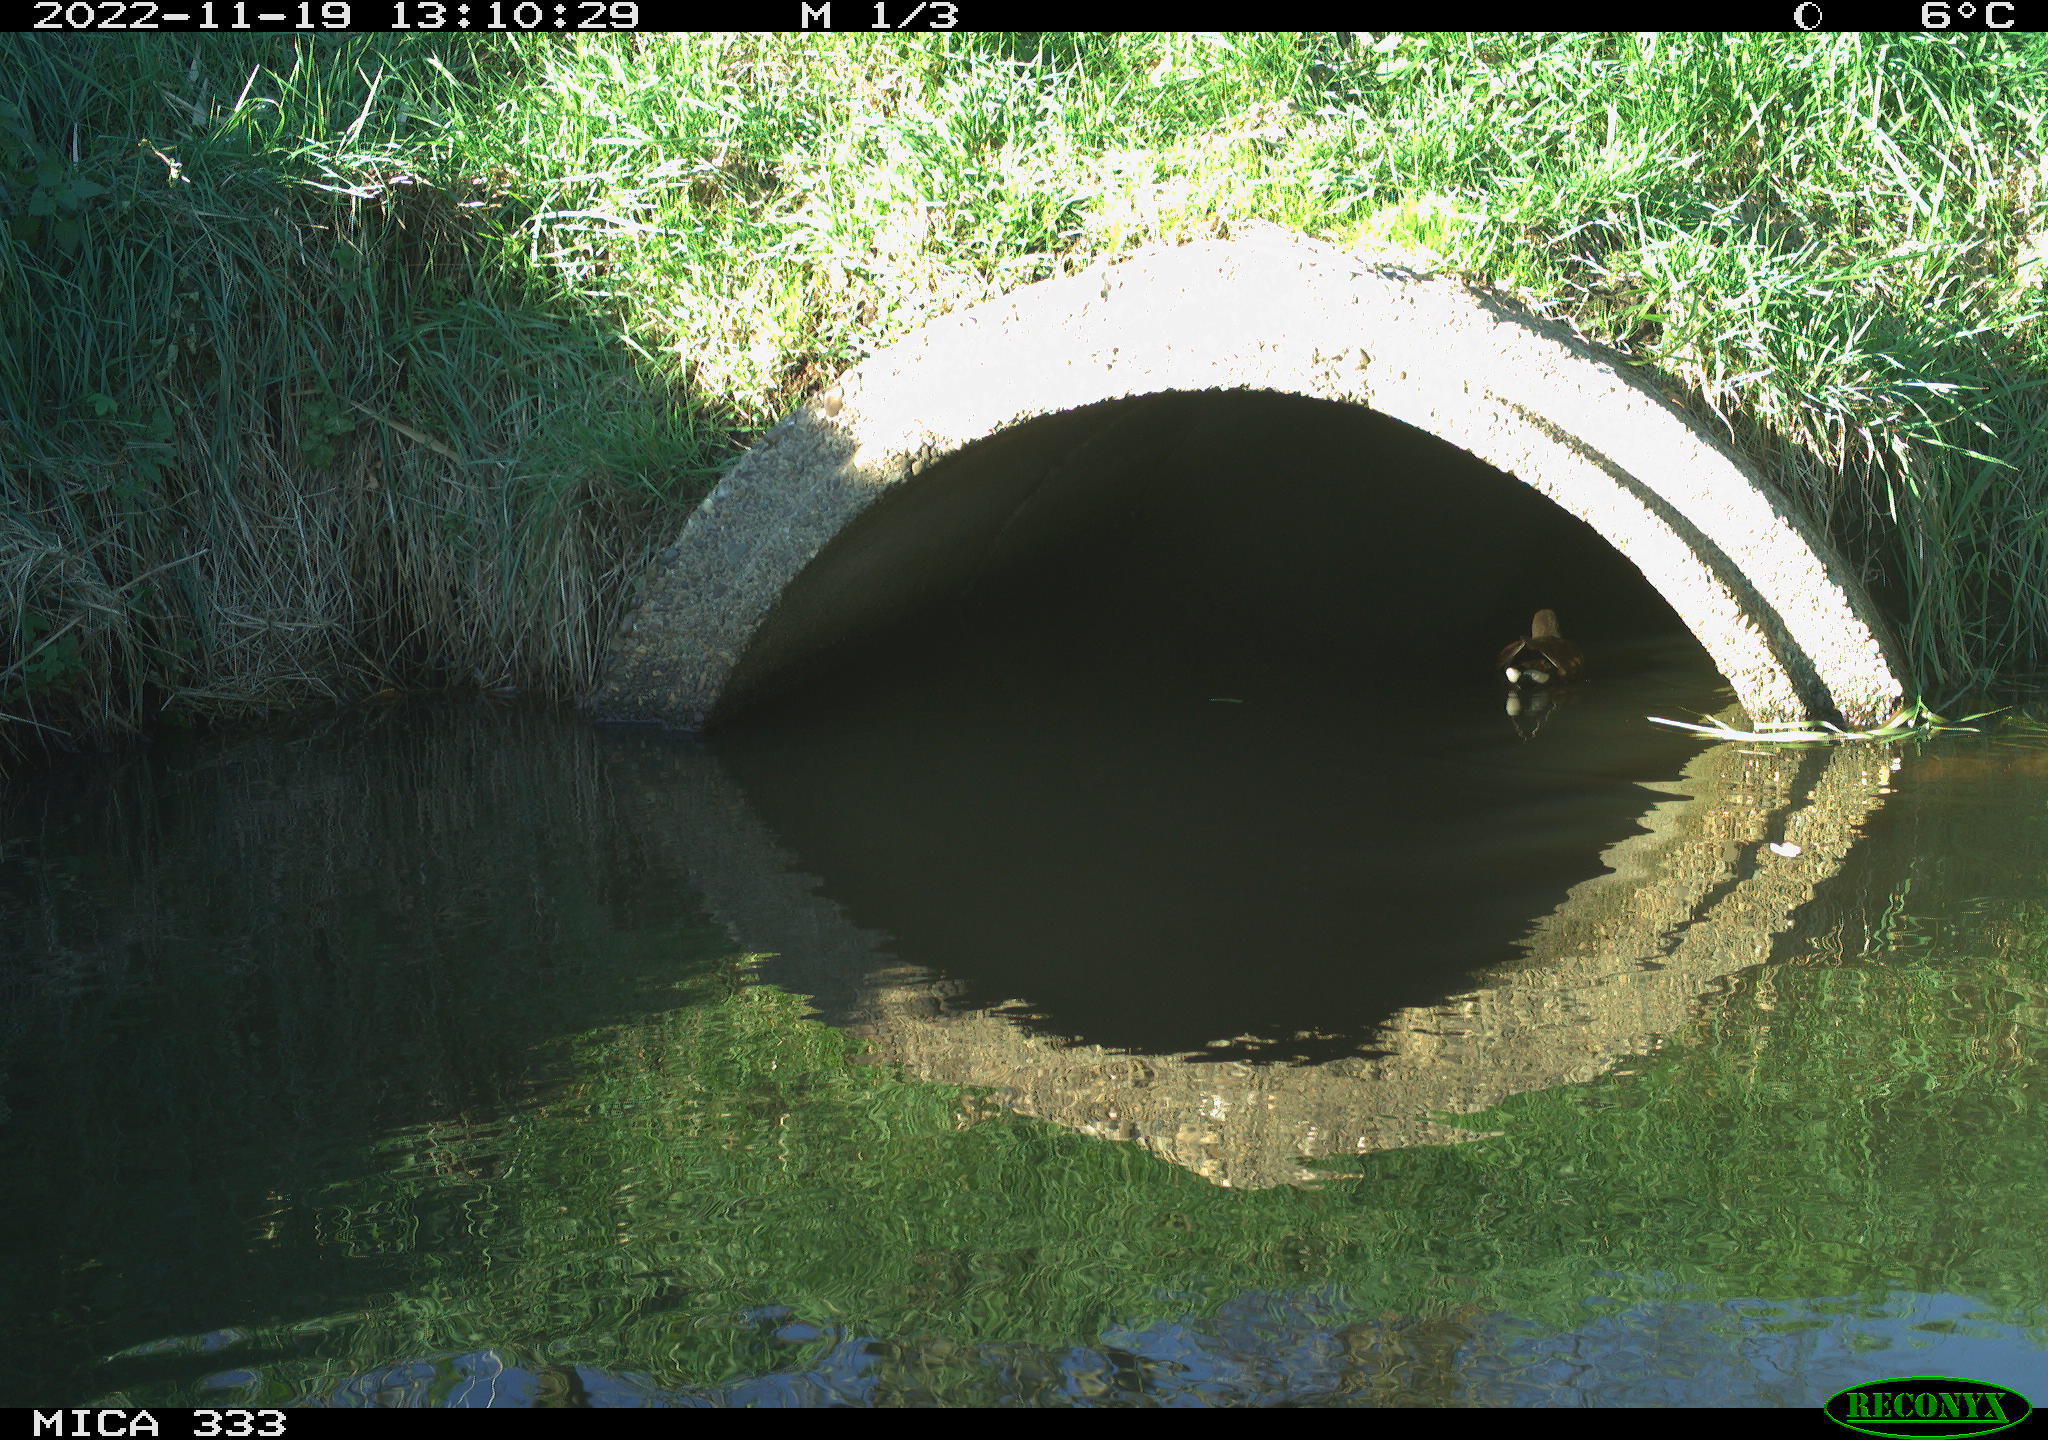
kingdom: Animalia
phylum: Chordata
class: Aves
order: Anseriformes
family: Anatidae
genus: Anas
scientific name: Anas
